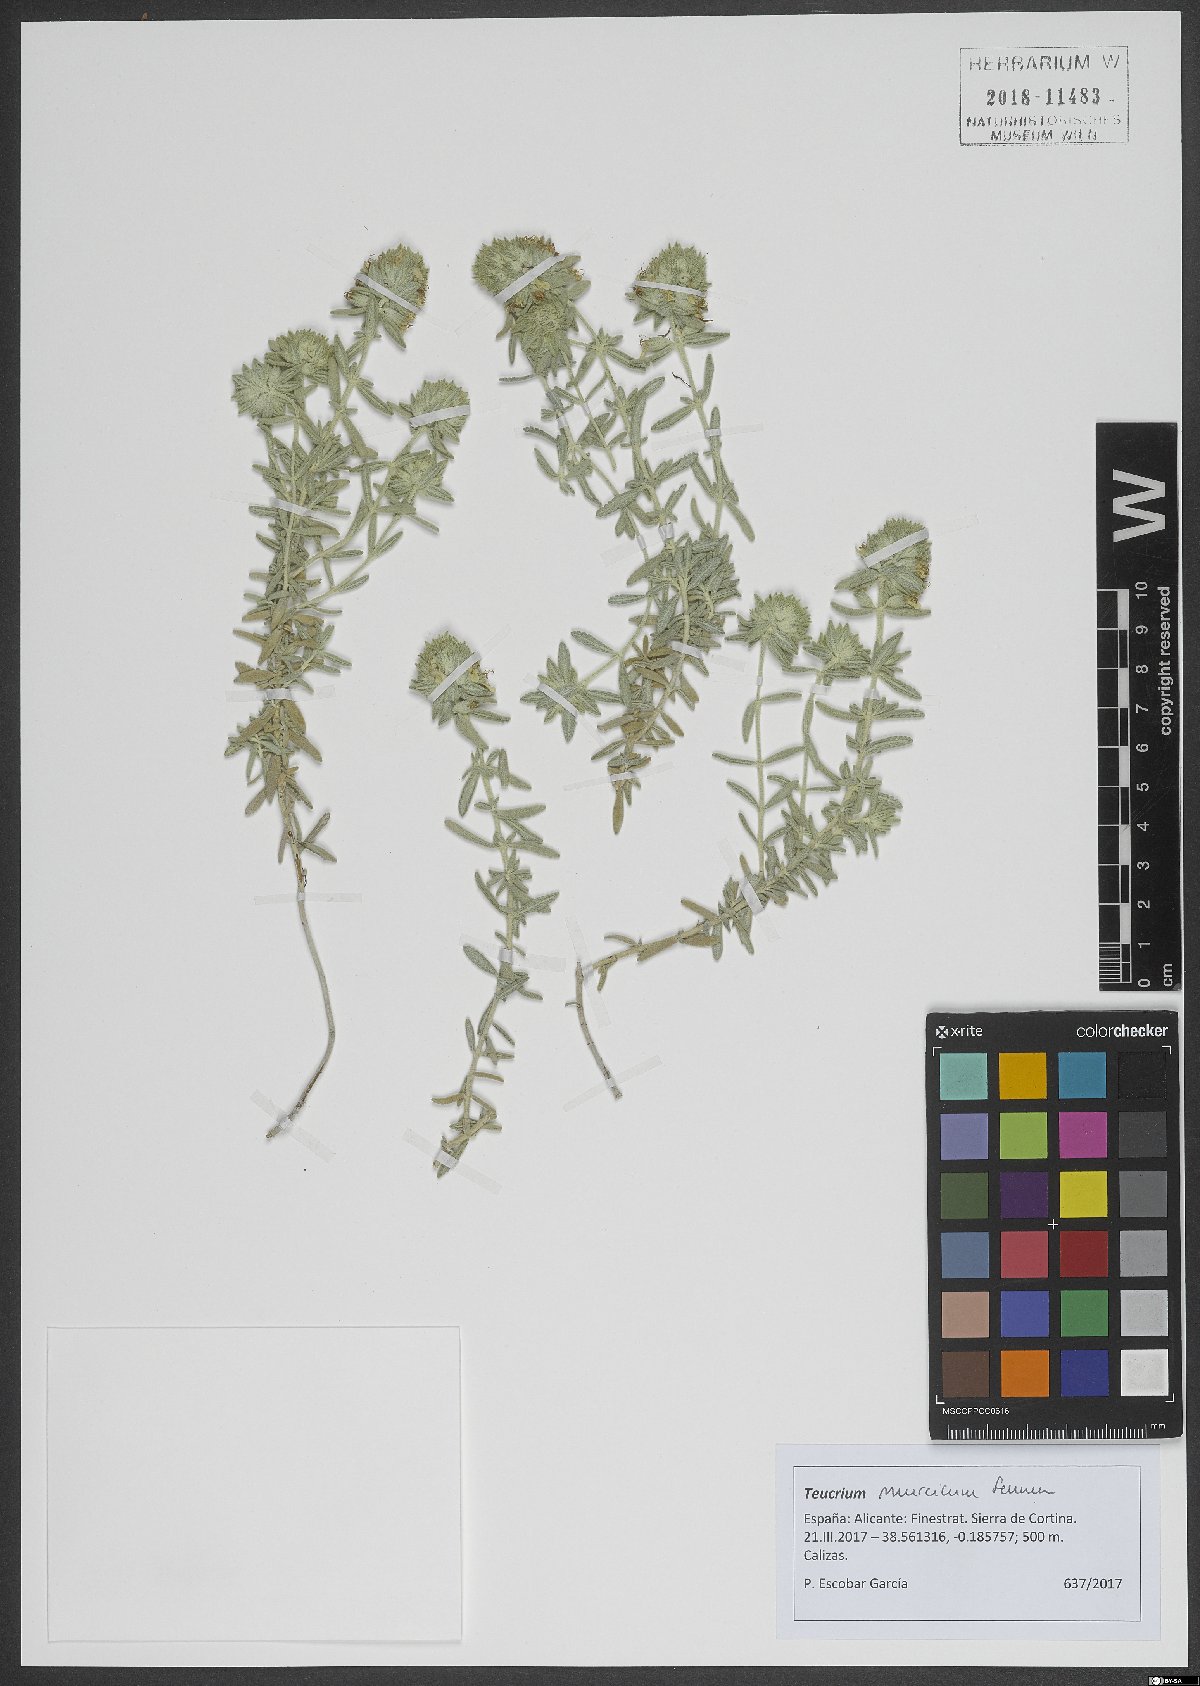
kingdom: Plantae
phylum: Tracheophyta
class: Magnoliopsida
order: Lamiales
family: Lamiaceae
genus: Teucrium
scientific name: Teucrium murcicum
